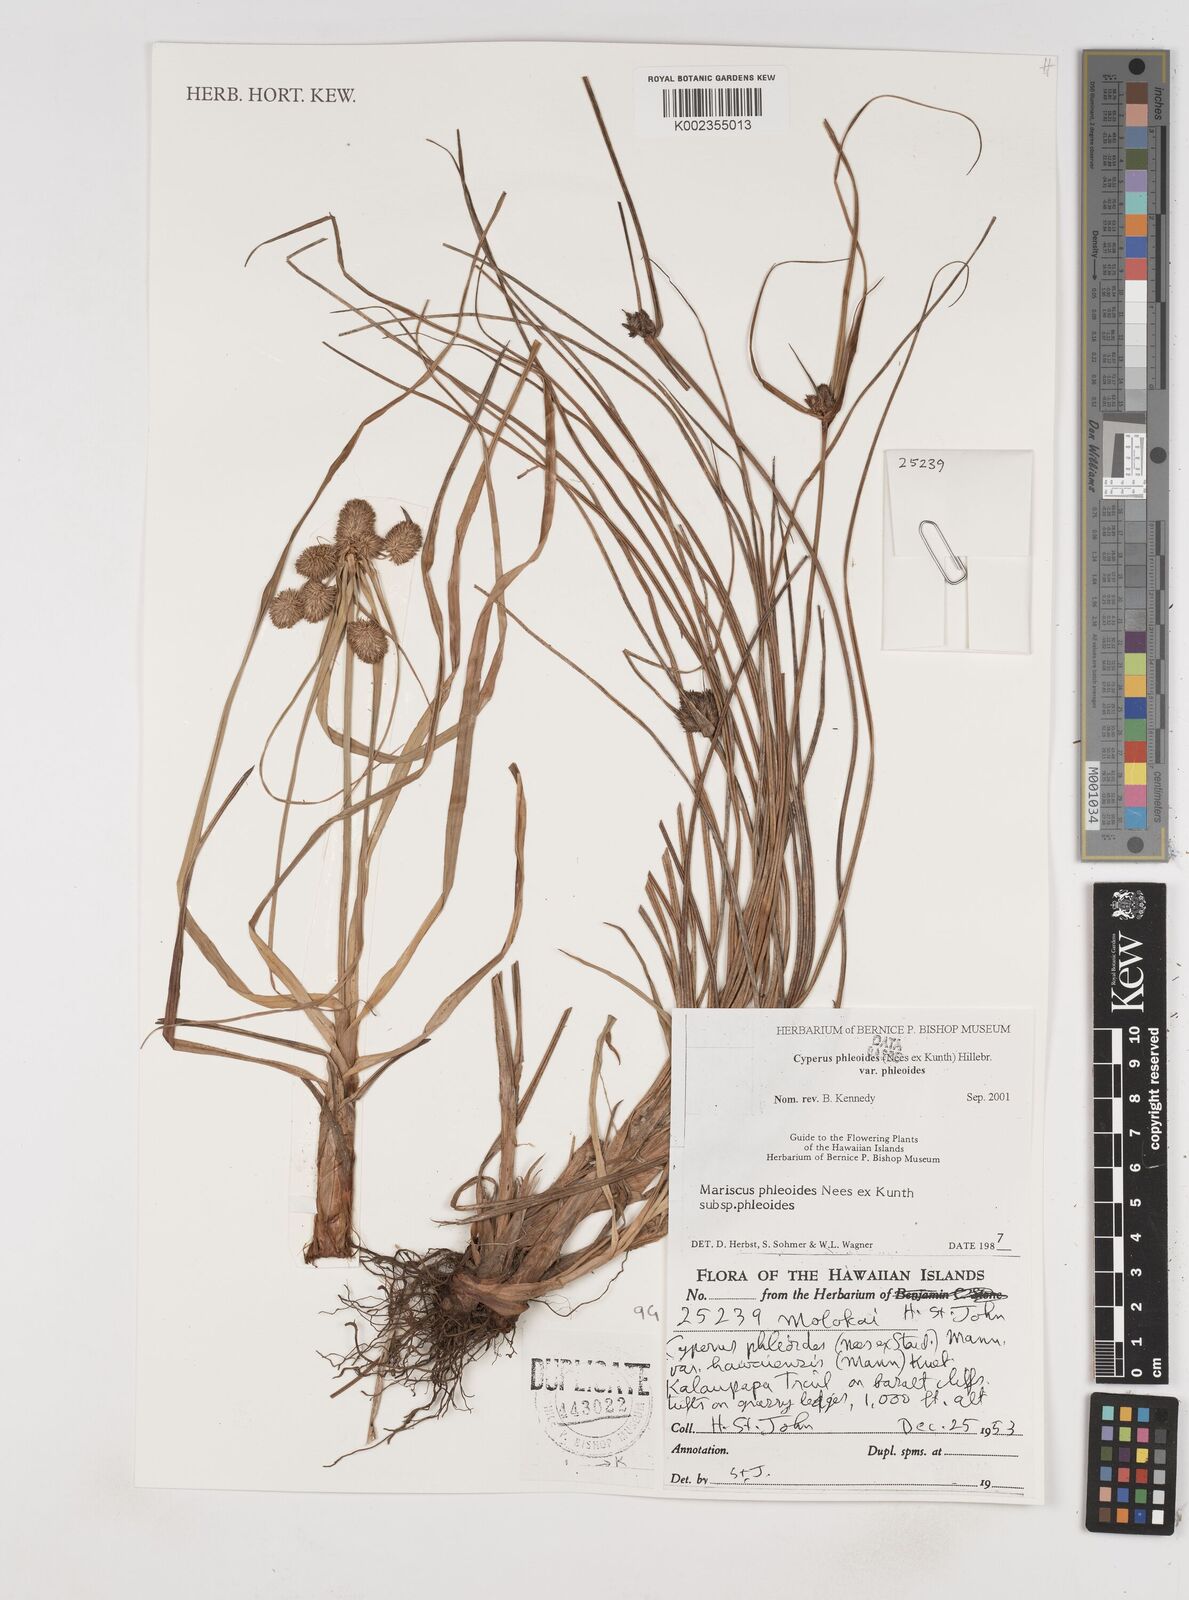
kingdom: Plantae
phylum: Tracheophyta
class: Liliopsida
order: Poales
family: Cyperaceae
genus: Cyperus
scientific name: Cyperus phleoides
